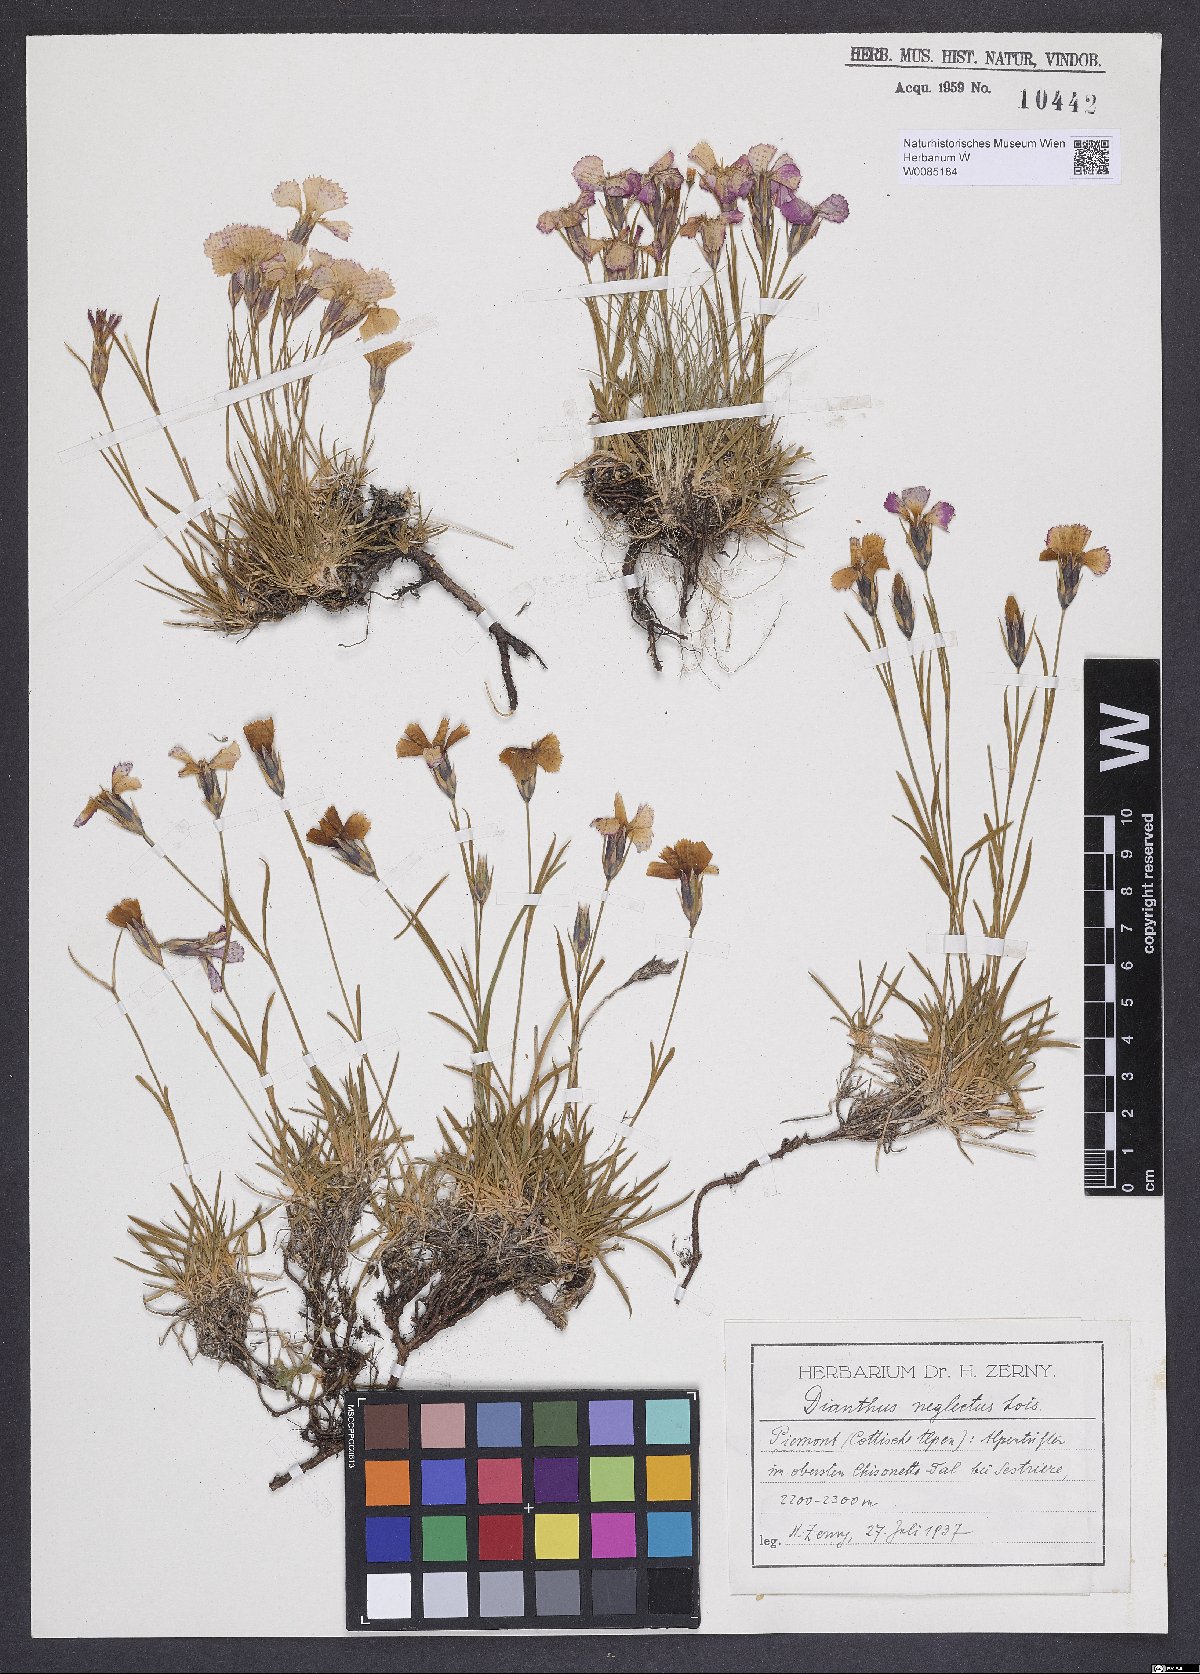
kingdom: Plantae
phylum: Tracheophyta
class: Magnoliopsida
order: Caryophyllales
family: Caryophyllaceae
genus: Dianthus
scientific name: Dianthus pavonius
